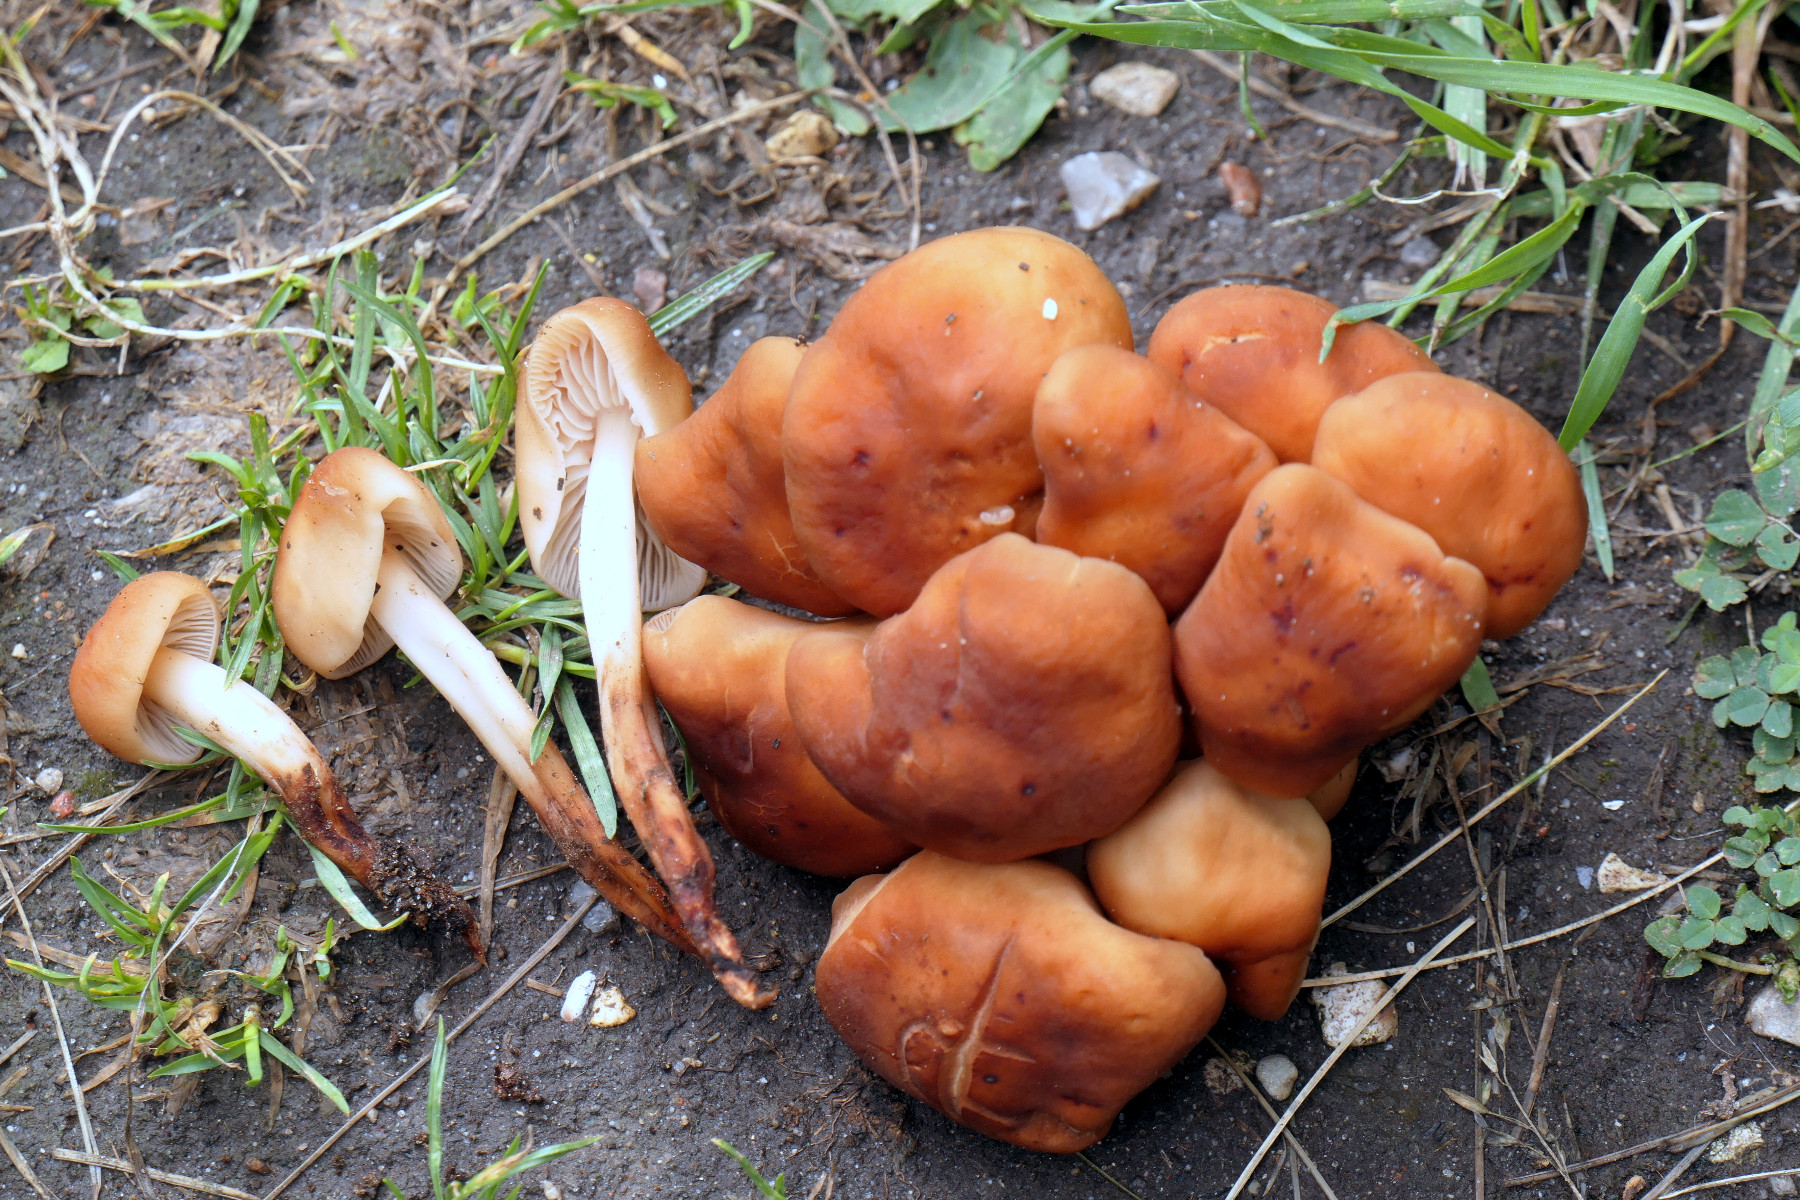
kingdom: Fungi
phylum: Basidiomycota
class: Agaricomycetes
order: Agaricales
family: Omphalotaceae
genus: Gymnopus
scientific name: Gymnopus fusipes
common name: tenstokket fladhat
